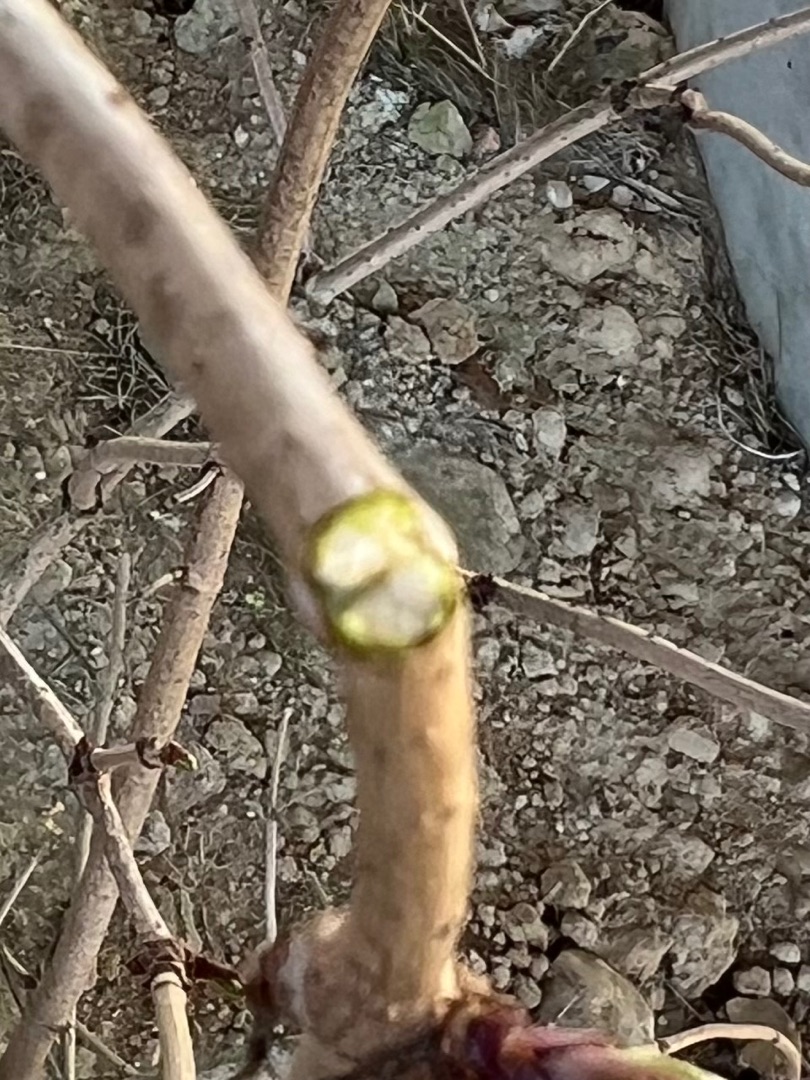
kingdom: Plantae
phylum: Tracheophyta
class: Magnoliopsida
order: Dipsacales
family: Viburnaceae
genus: Sambucus
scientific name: Sambucus nigra
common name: Almindelig hyld
